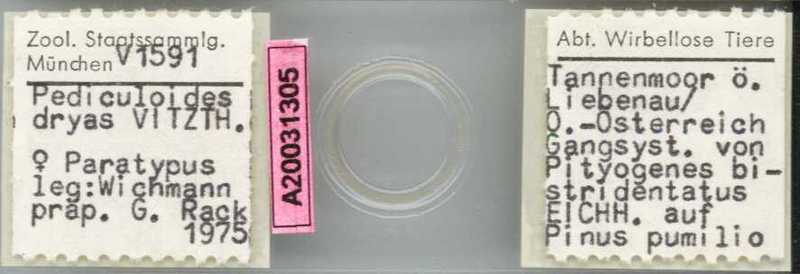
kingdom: Animalia
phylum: Arthropoda
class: Arachnida
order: Trombidiformes
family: Pyemotidae
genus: Pyemotes
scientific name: Pyemotes dryas
